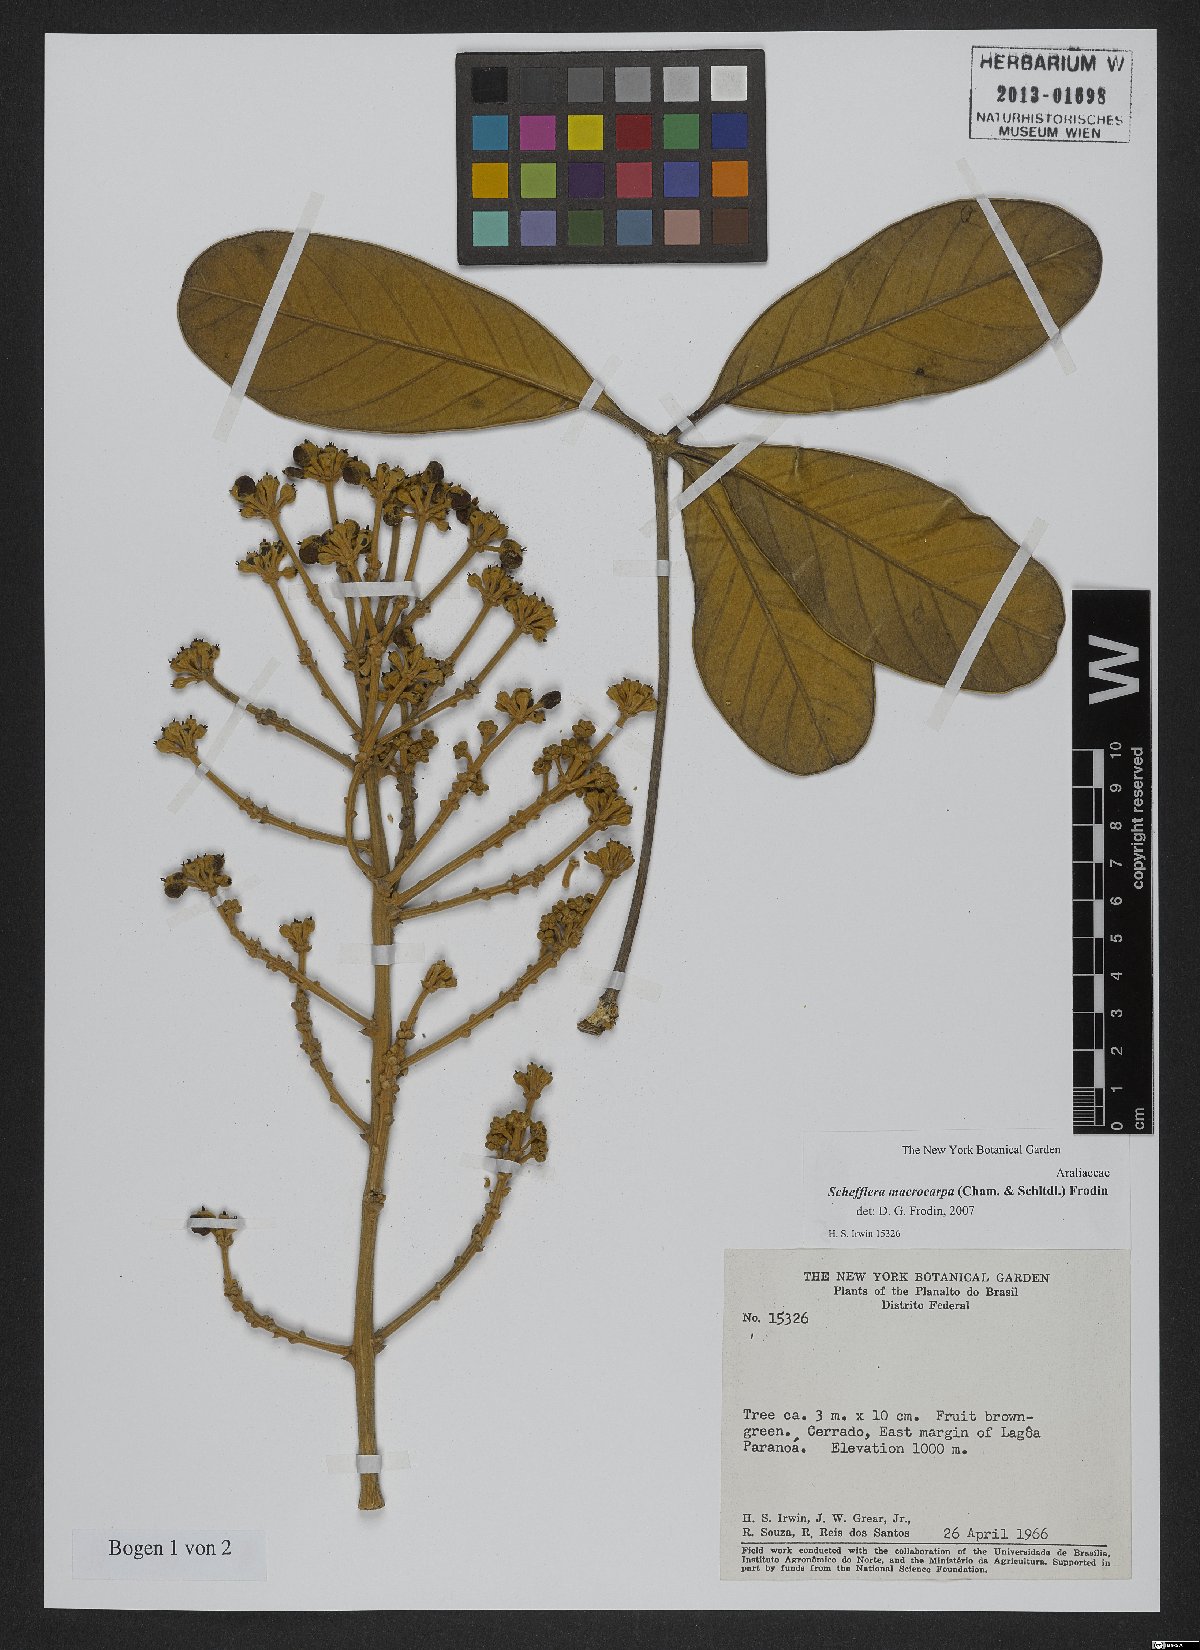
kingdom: Plantae
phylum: Tracheophyta
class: Magnoliopsida
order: Apiales
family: Araliaceae
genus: Didymopanax
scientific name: Didymopanax macrocarpus
